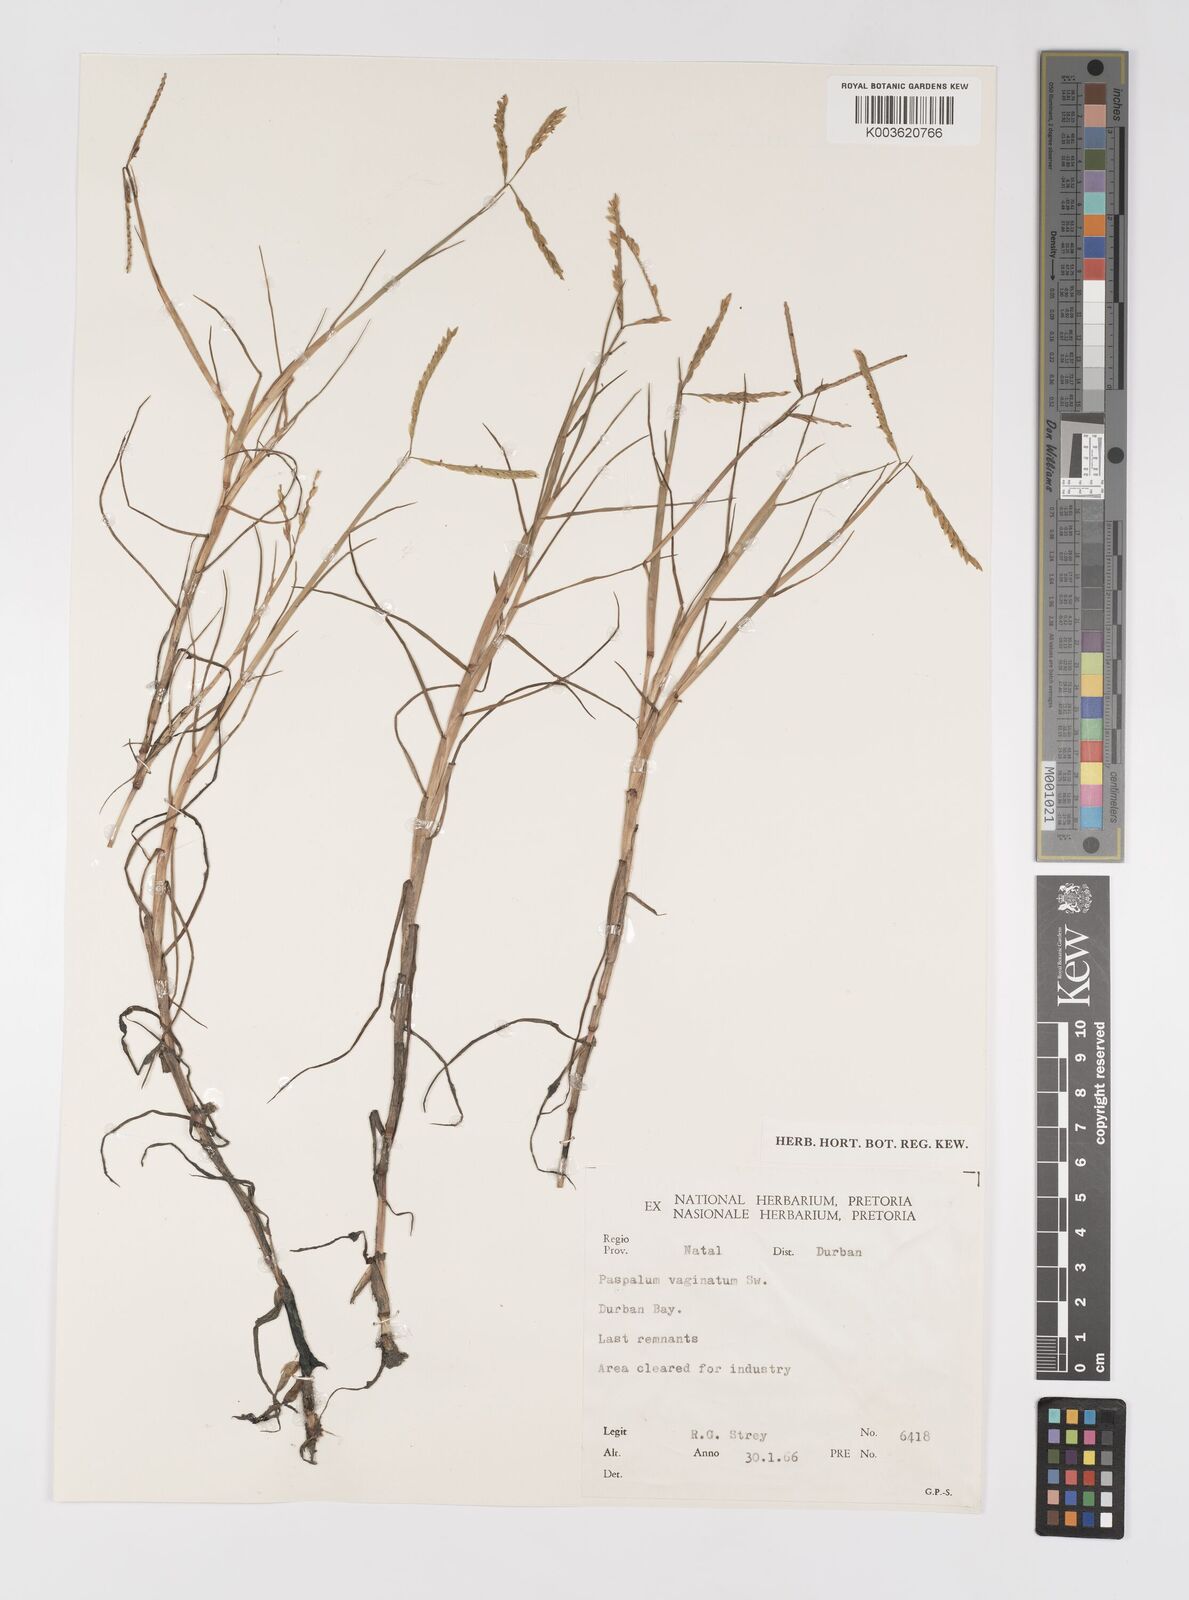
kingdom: Plantae
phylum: Tracheophyta
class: Liliopsida
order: Poales
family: Poaceae
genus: Paspalum
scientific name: Paspalum vaginatum
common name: Seashore paspalum
